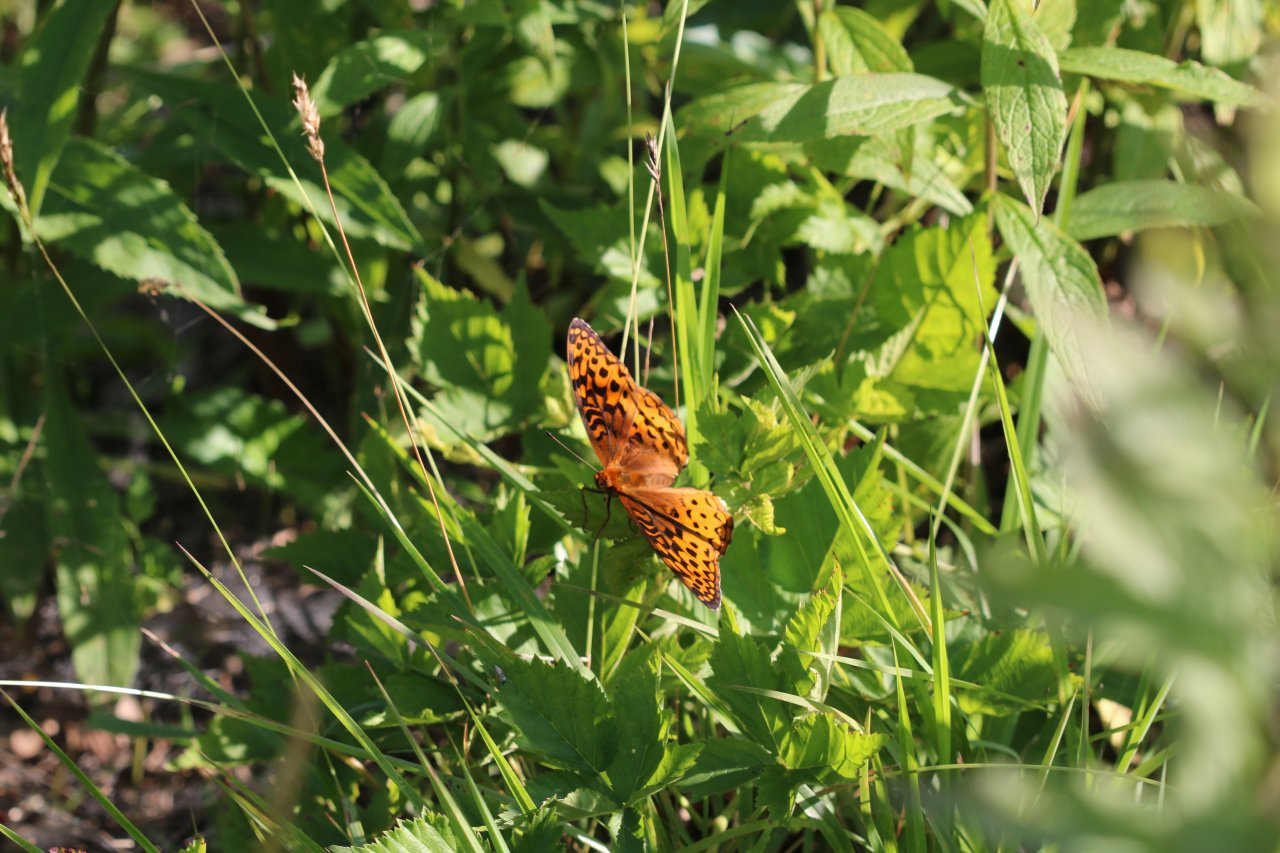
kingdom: Animalia
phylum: Arthropoda
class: Insecta
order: Lepidoptera
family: Nymphalidae
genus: Clossiana
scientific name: Clossiana toddi
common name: Meadow Fritillary
